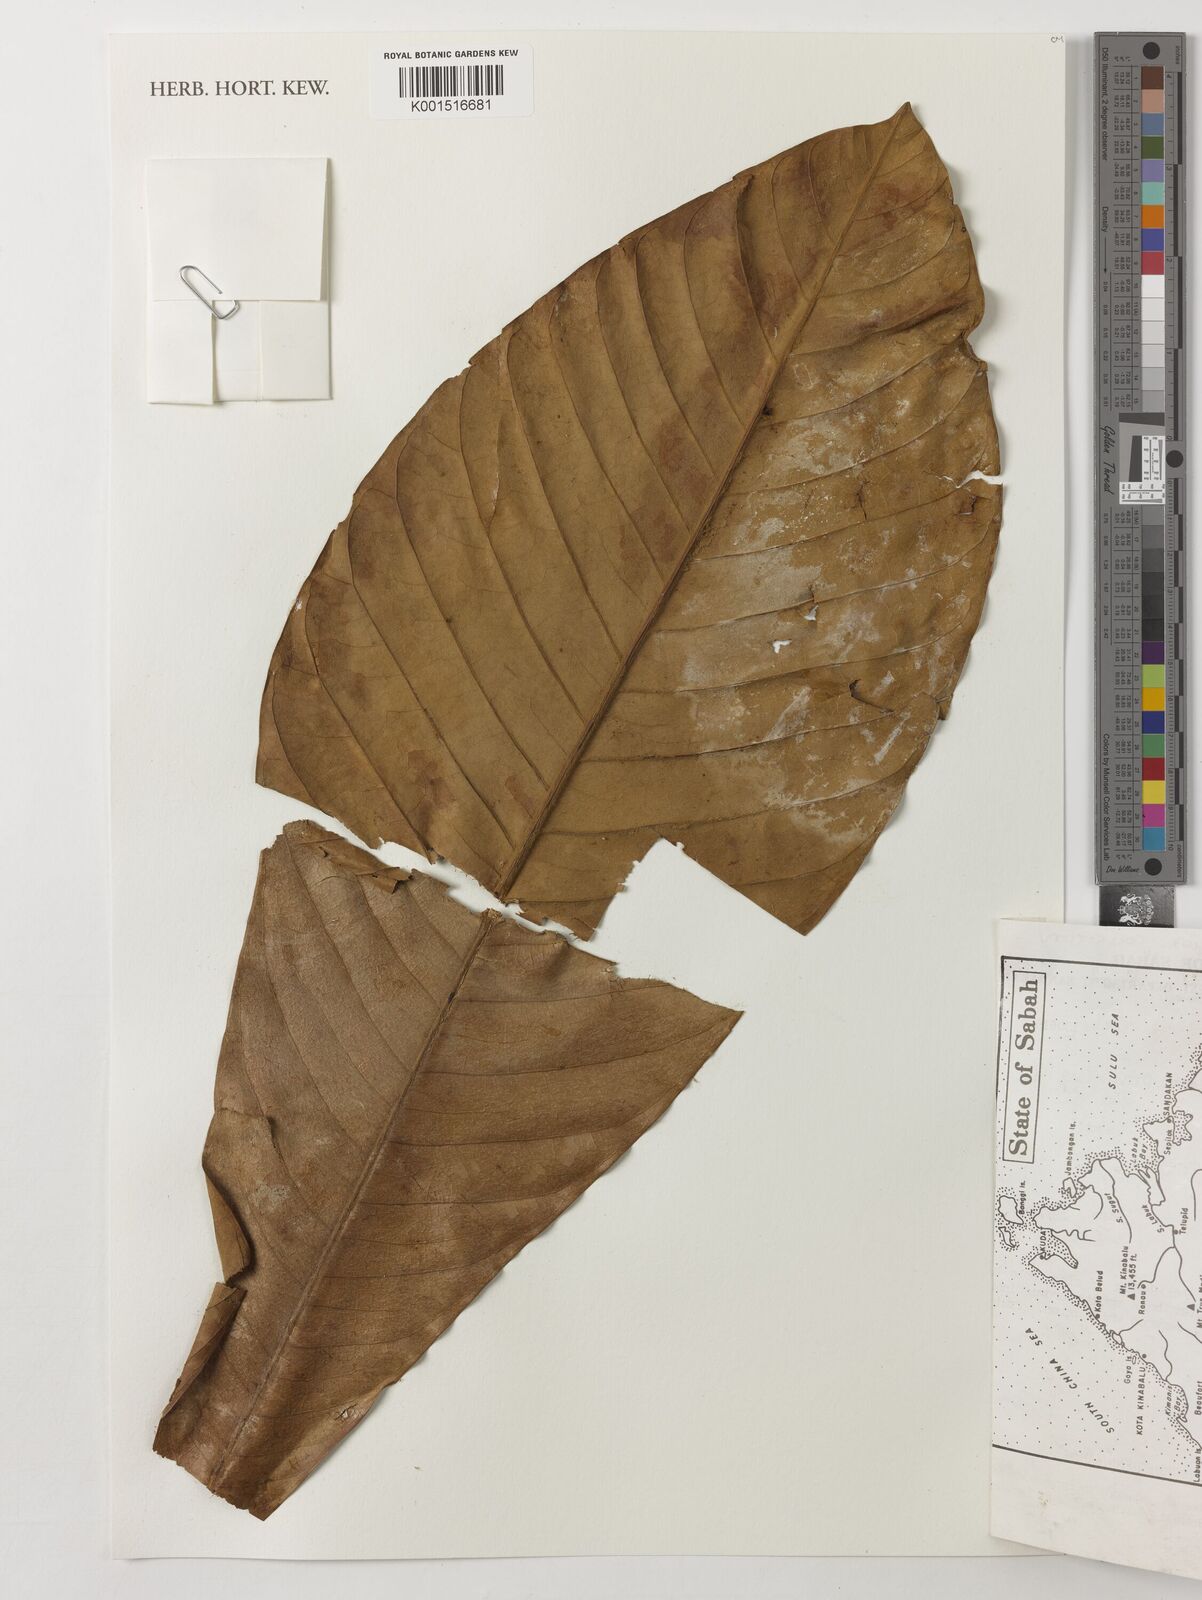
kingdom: Plantae
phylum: Tracheophyta
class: Magnoliopsida
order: Magnoliales
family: Magnoliaceae
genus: Magnolia
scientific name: Magnolia
